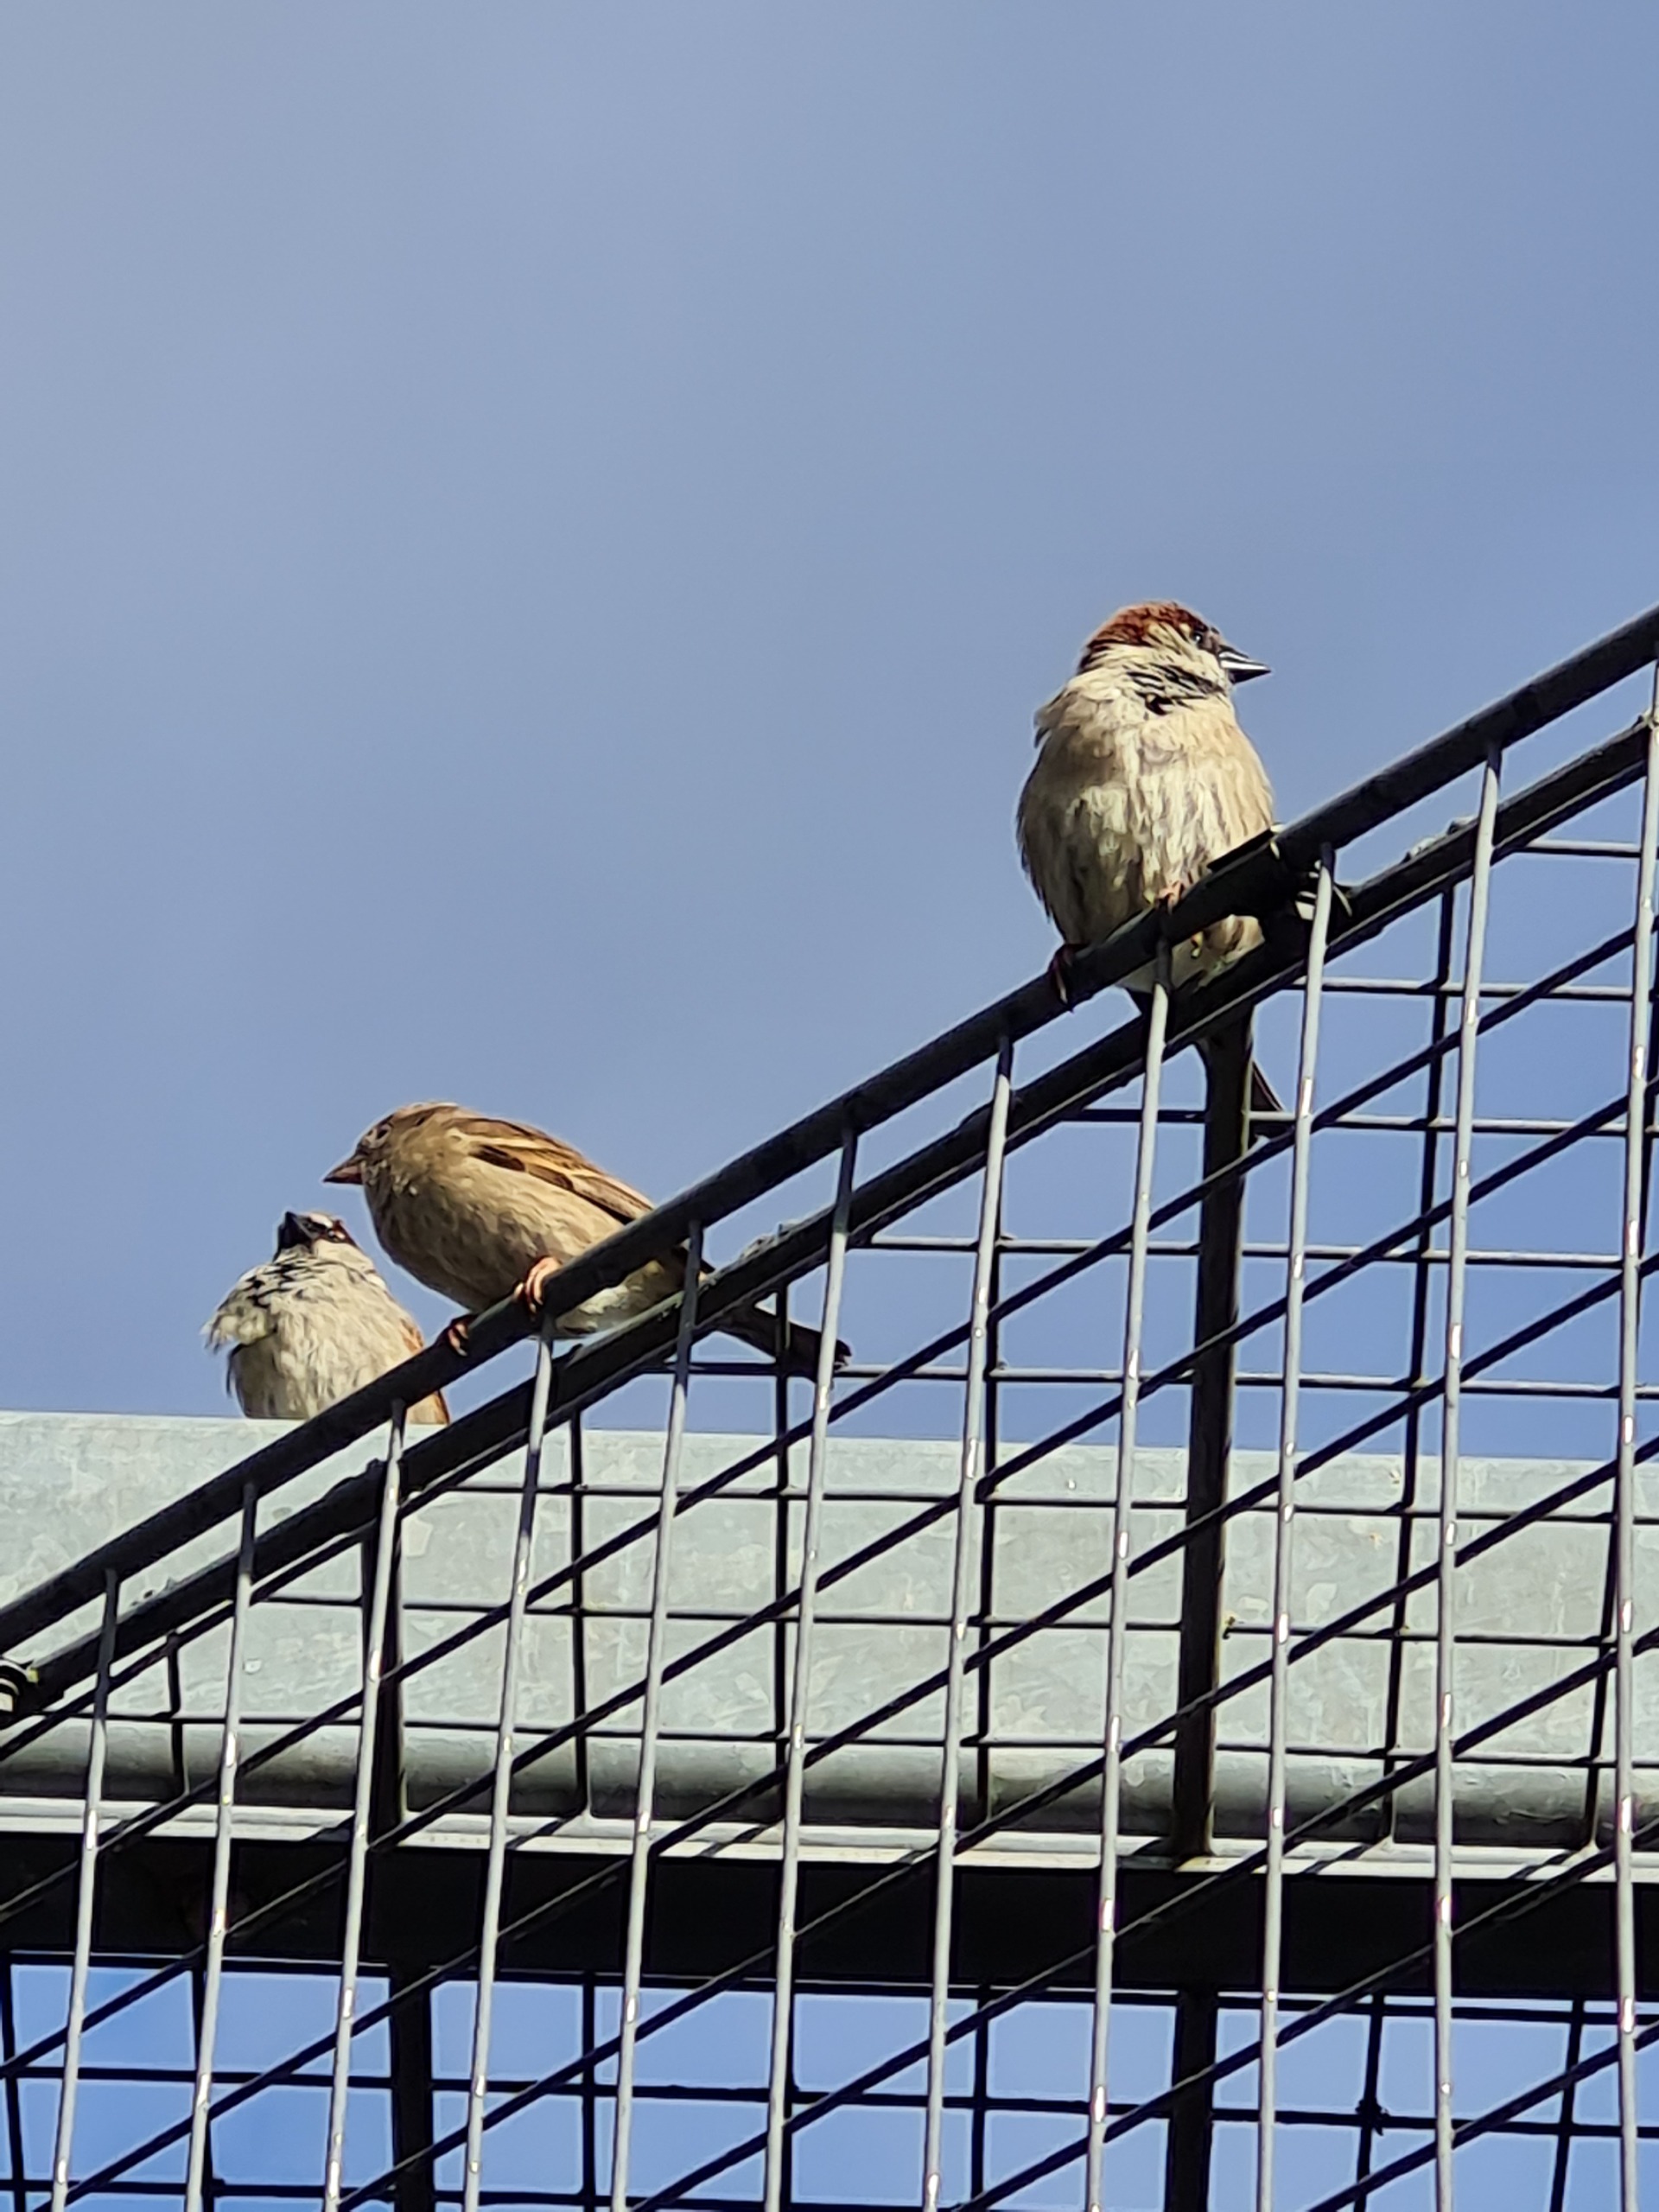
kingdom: Animalia
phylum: Chordata
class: Aves
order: Passeriformes
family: Passeridae
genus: Passer
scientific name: Passer domesticus
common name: Gråspurv
